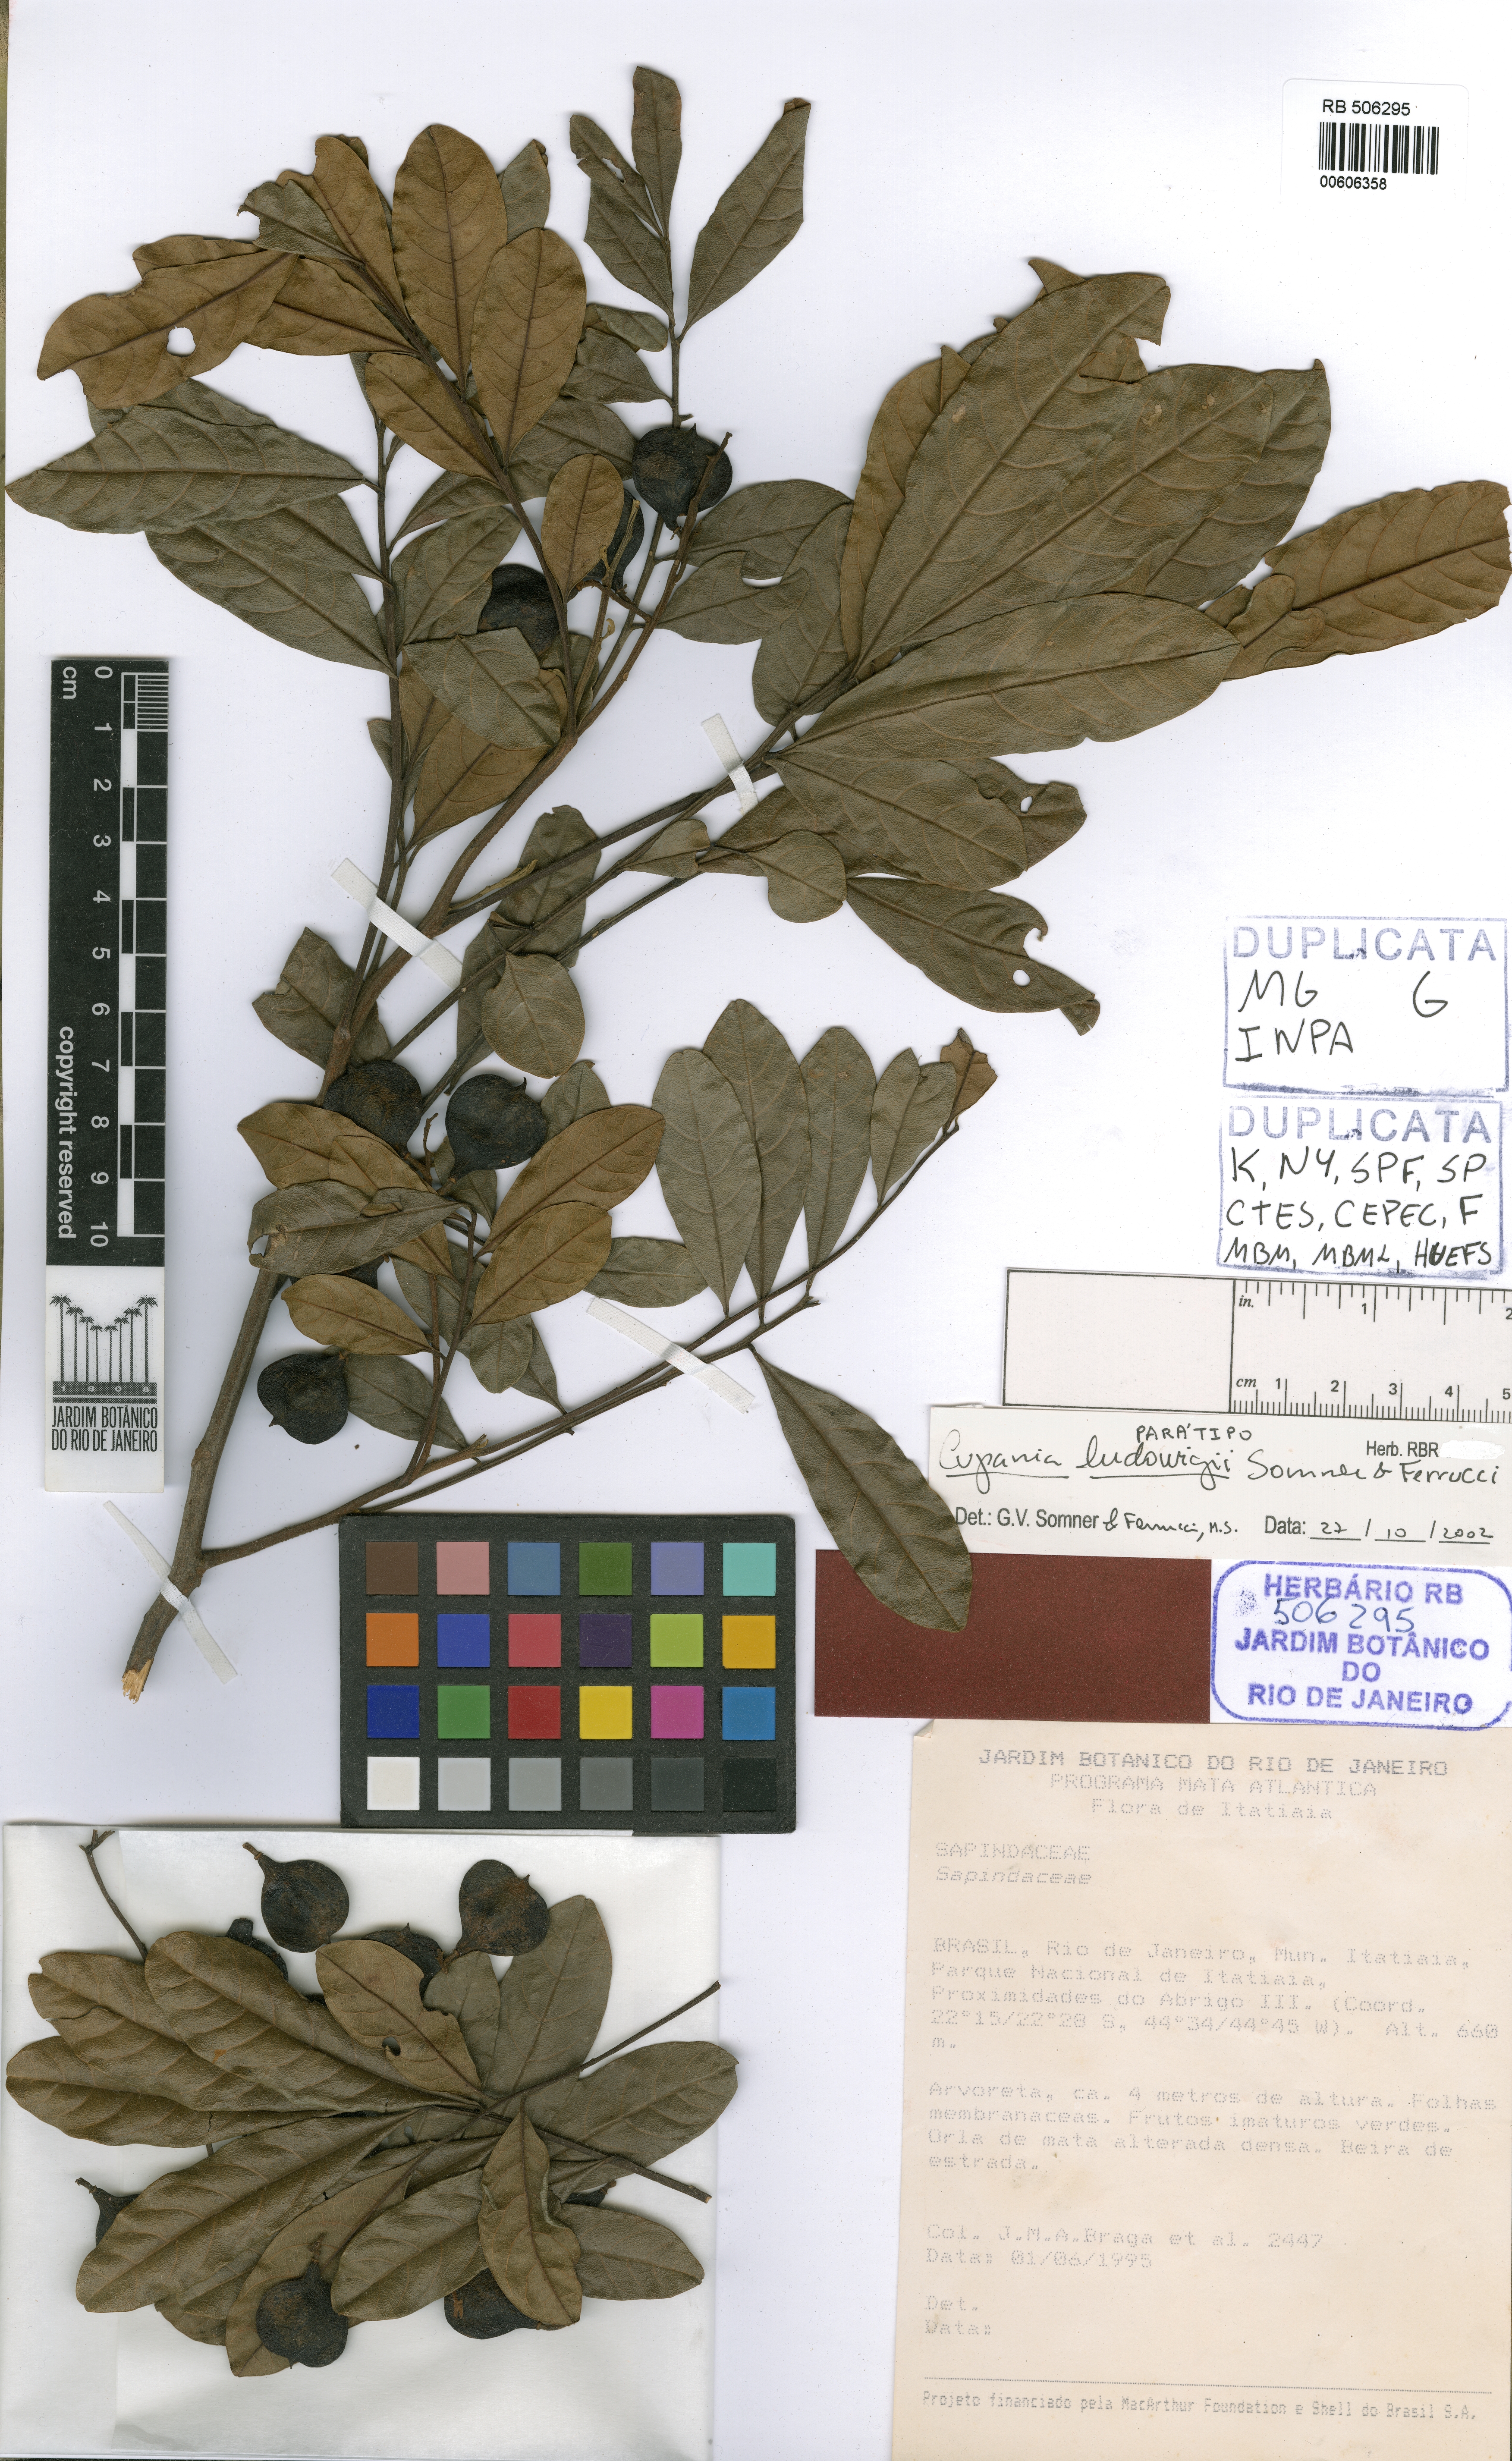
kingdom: Plantae
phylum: Tracheophyta
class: Magnoliopsida
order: Sapindales
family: Sapindaceae
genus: Cupania
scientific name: Cupania ludowigii
